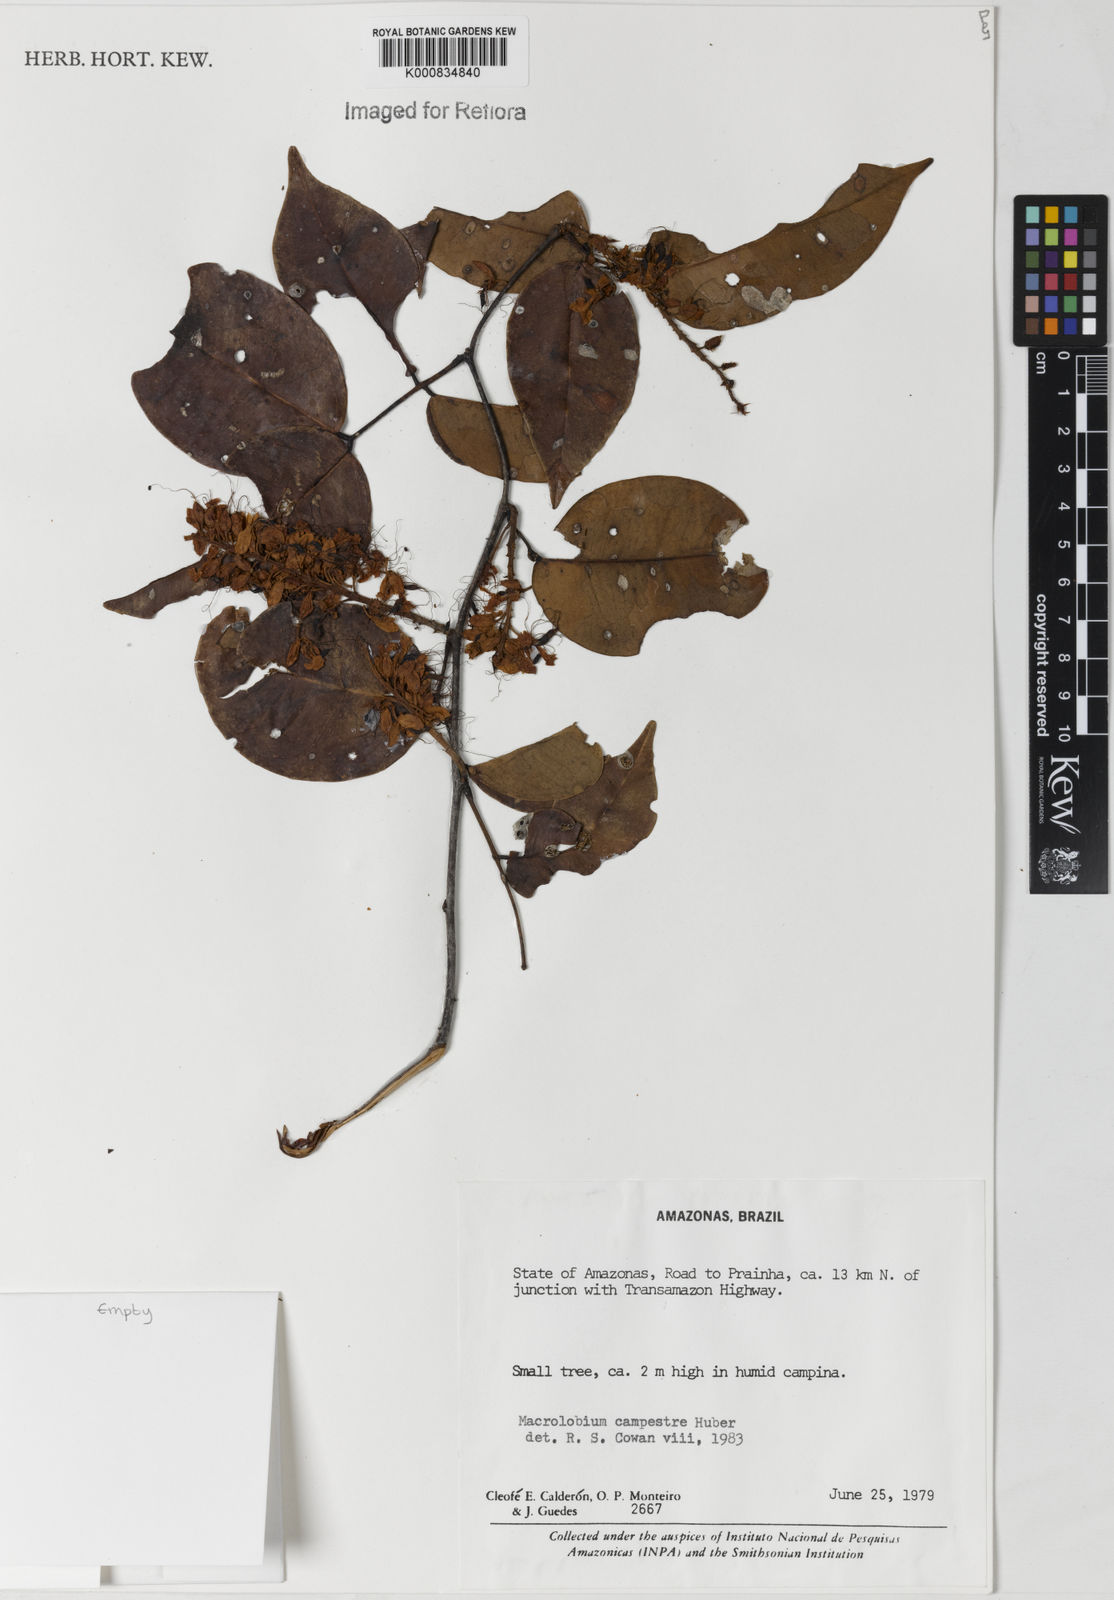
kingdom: Plantae
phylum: Tracheophyta
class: Magnoliopsida
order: Fabales
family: Fabaceae
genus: Macrolobium
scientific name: Macrolobium campestre
